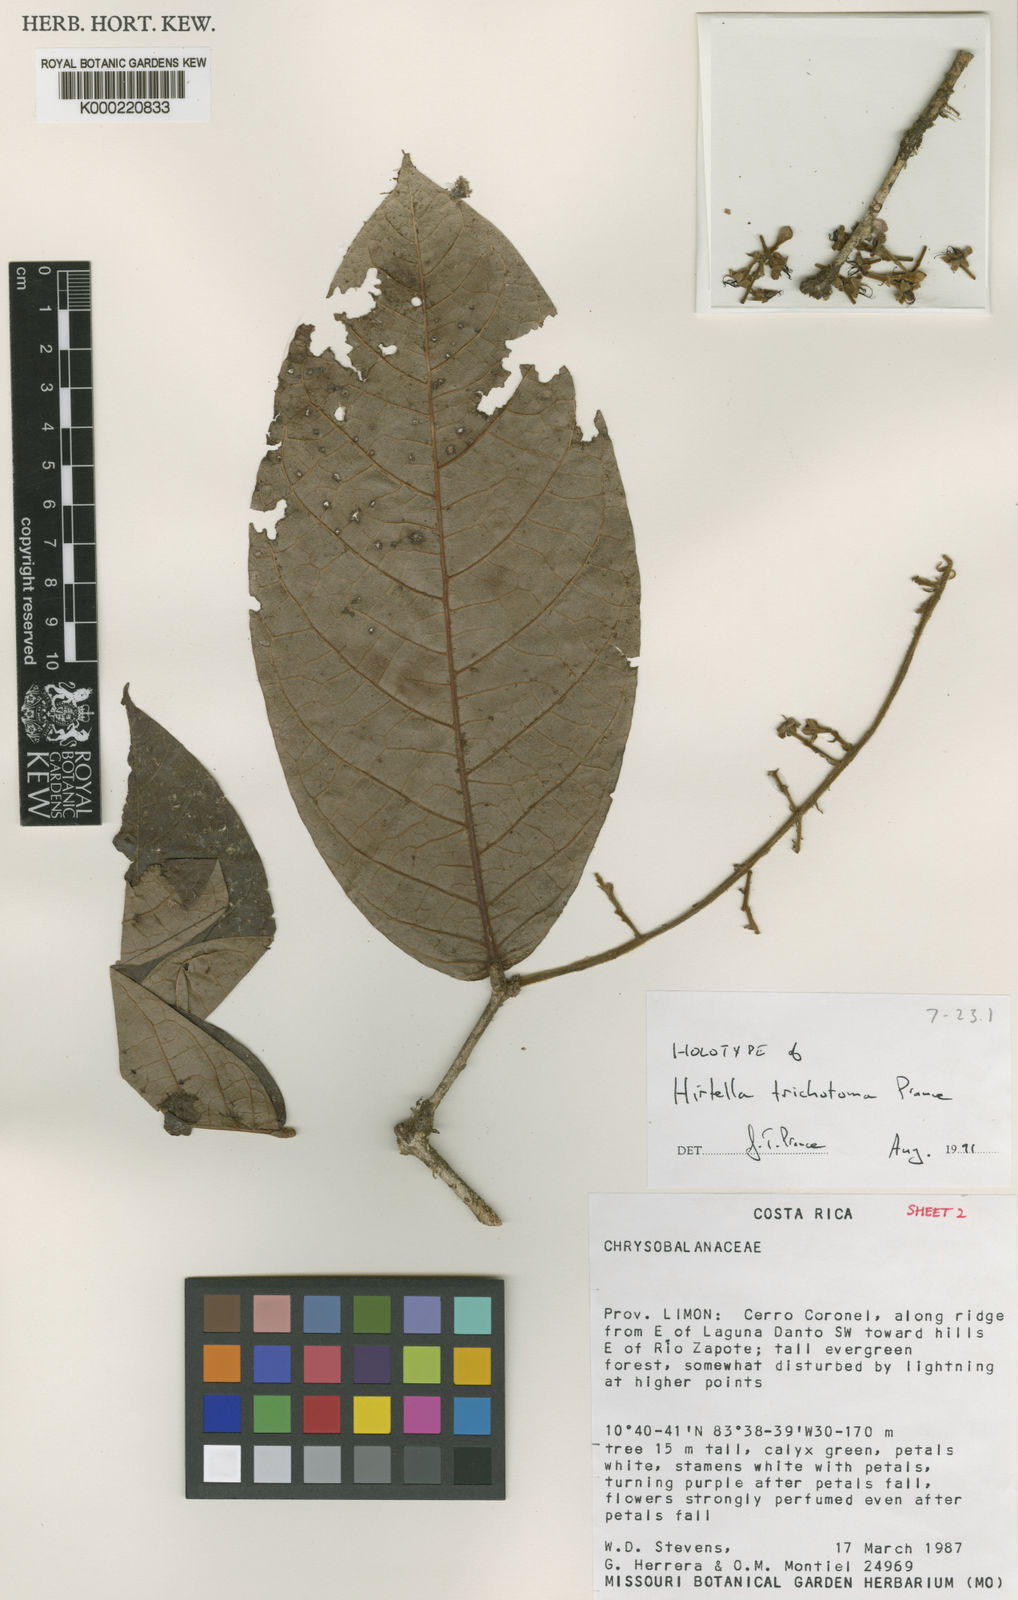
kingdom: Plantae
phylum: Tracheophyta
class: Magnoliopsida
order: Malpighiales
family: Chrysobalanaceae
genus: Hirtella
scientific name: Hirtella trichotoma
